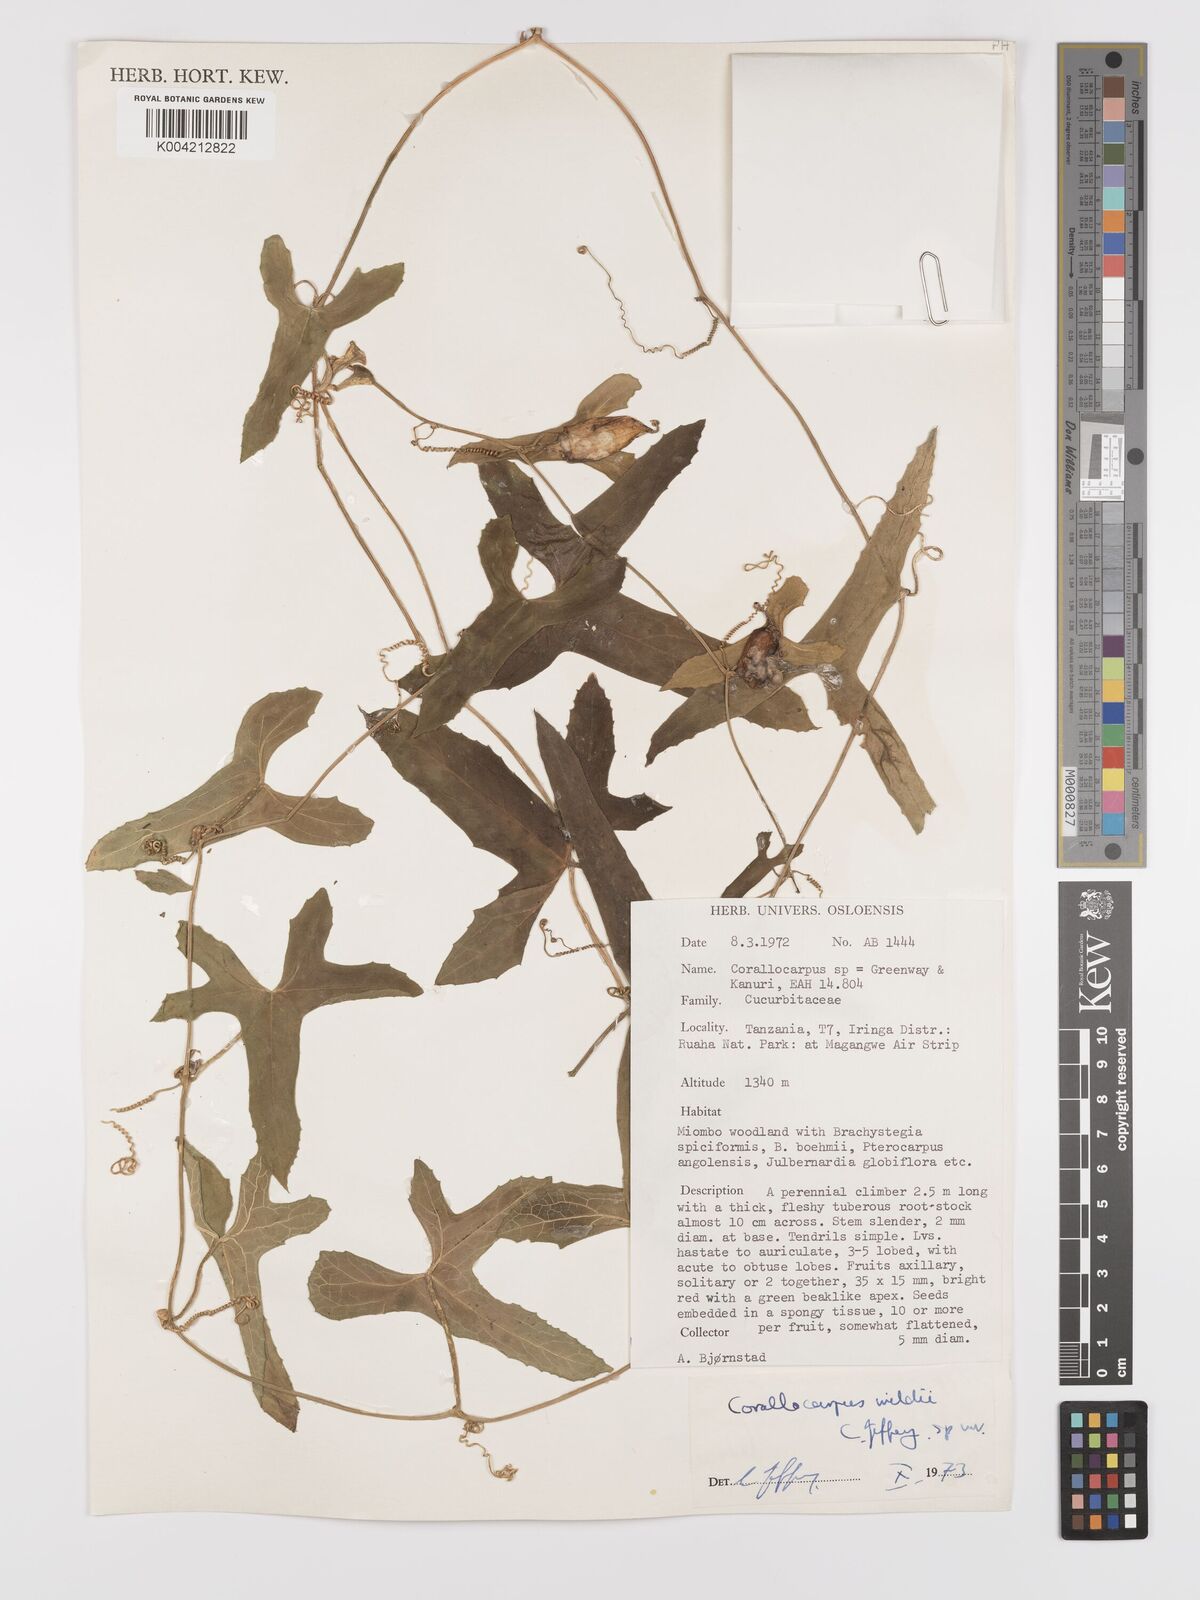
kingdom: Plantae
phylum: Tracheophyta
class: Magnoliopsida
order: Cucurbitales
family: Cucurbitaceae
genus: Corallocarpus
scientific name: Corallocarpus tenuissimus
